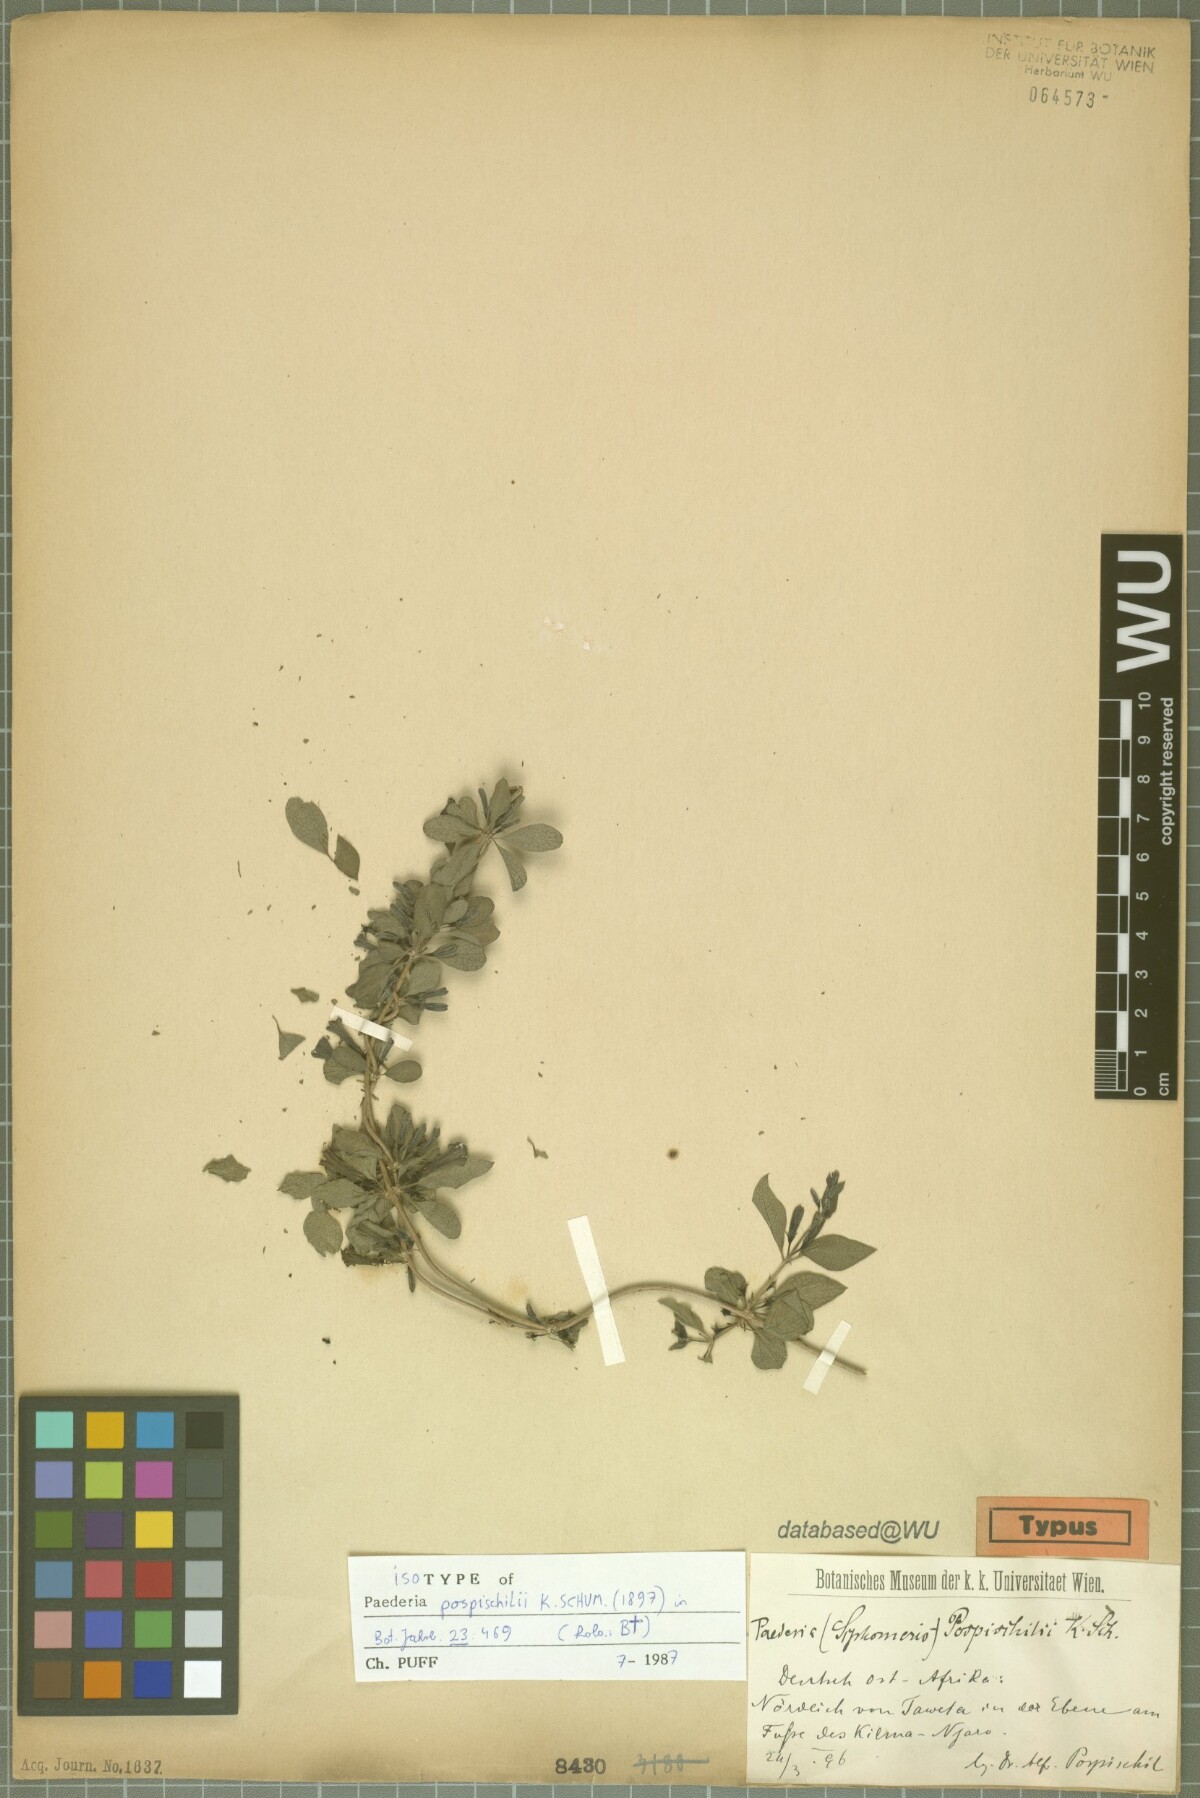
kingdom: Plantae
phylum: Tracheophyta
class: Magnoliopsida
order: Gentianales
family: Rubiaceae
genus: Paederia
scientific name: Paederia pospischilii
